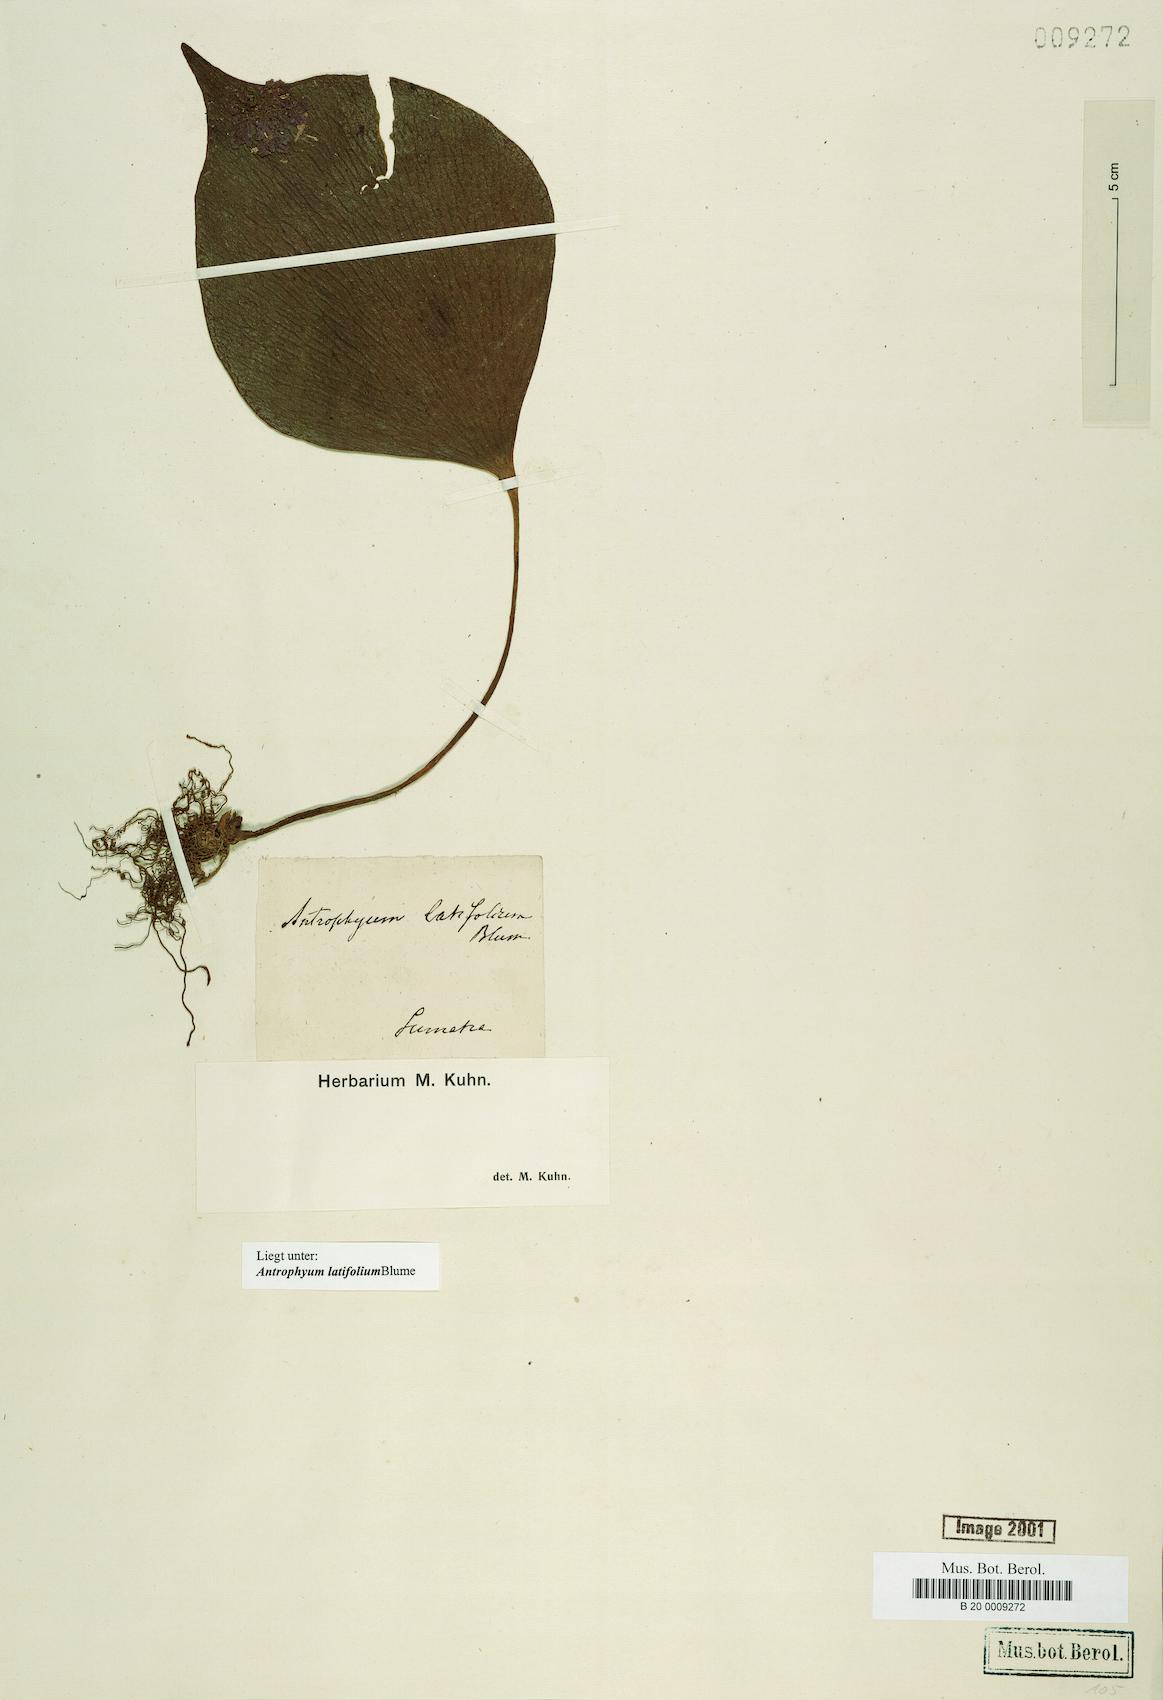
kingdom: Plantae
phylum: Tracheophyta
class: Polypodiopsida
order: Polypodiales
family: Pteridaceae
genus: Antrophyum
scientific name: Antrophyum latifolium
